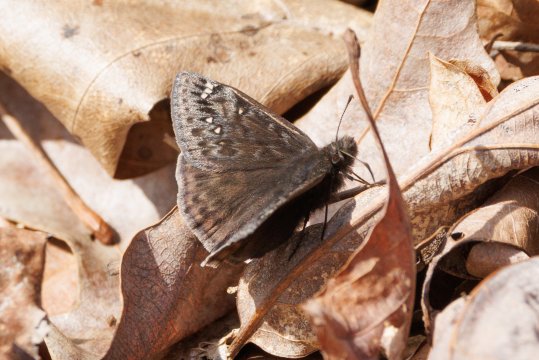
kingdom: Animalia
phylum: Arthropoda
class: Insecta
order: Lepidoptera
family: Hesperiidae
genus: Gesta
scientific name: Gesta
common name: Juvenal's Duskywing
